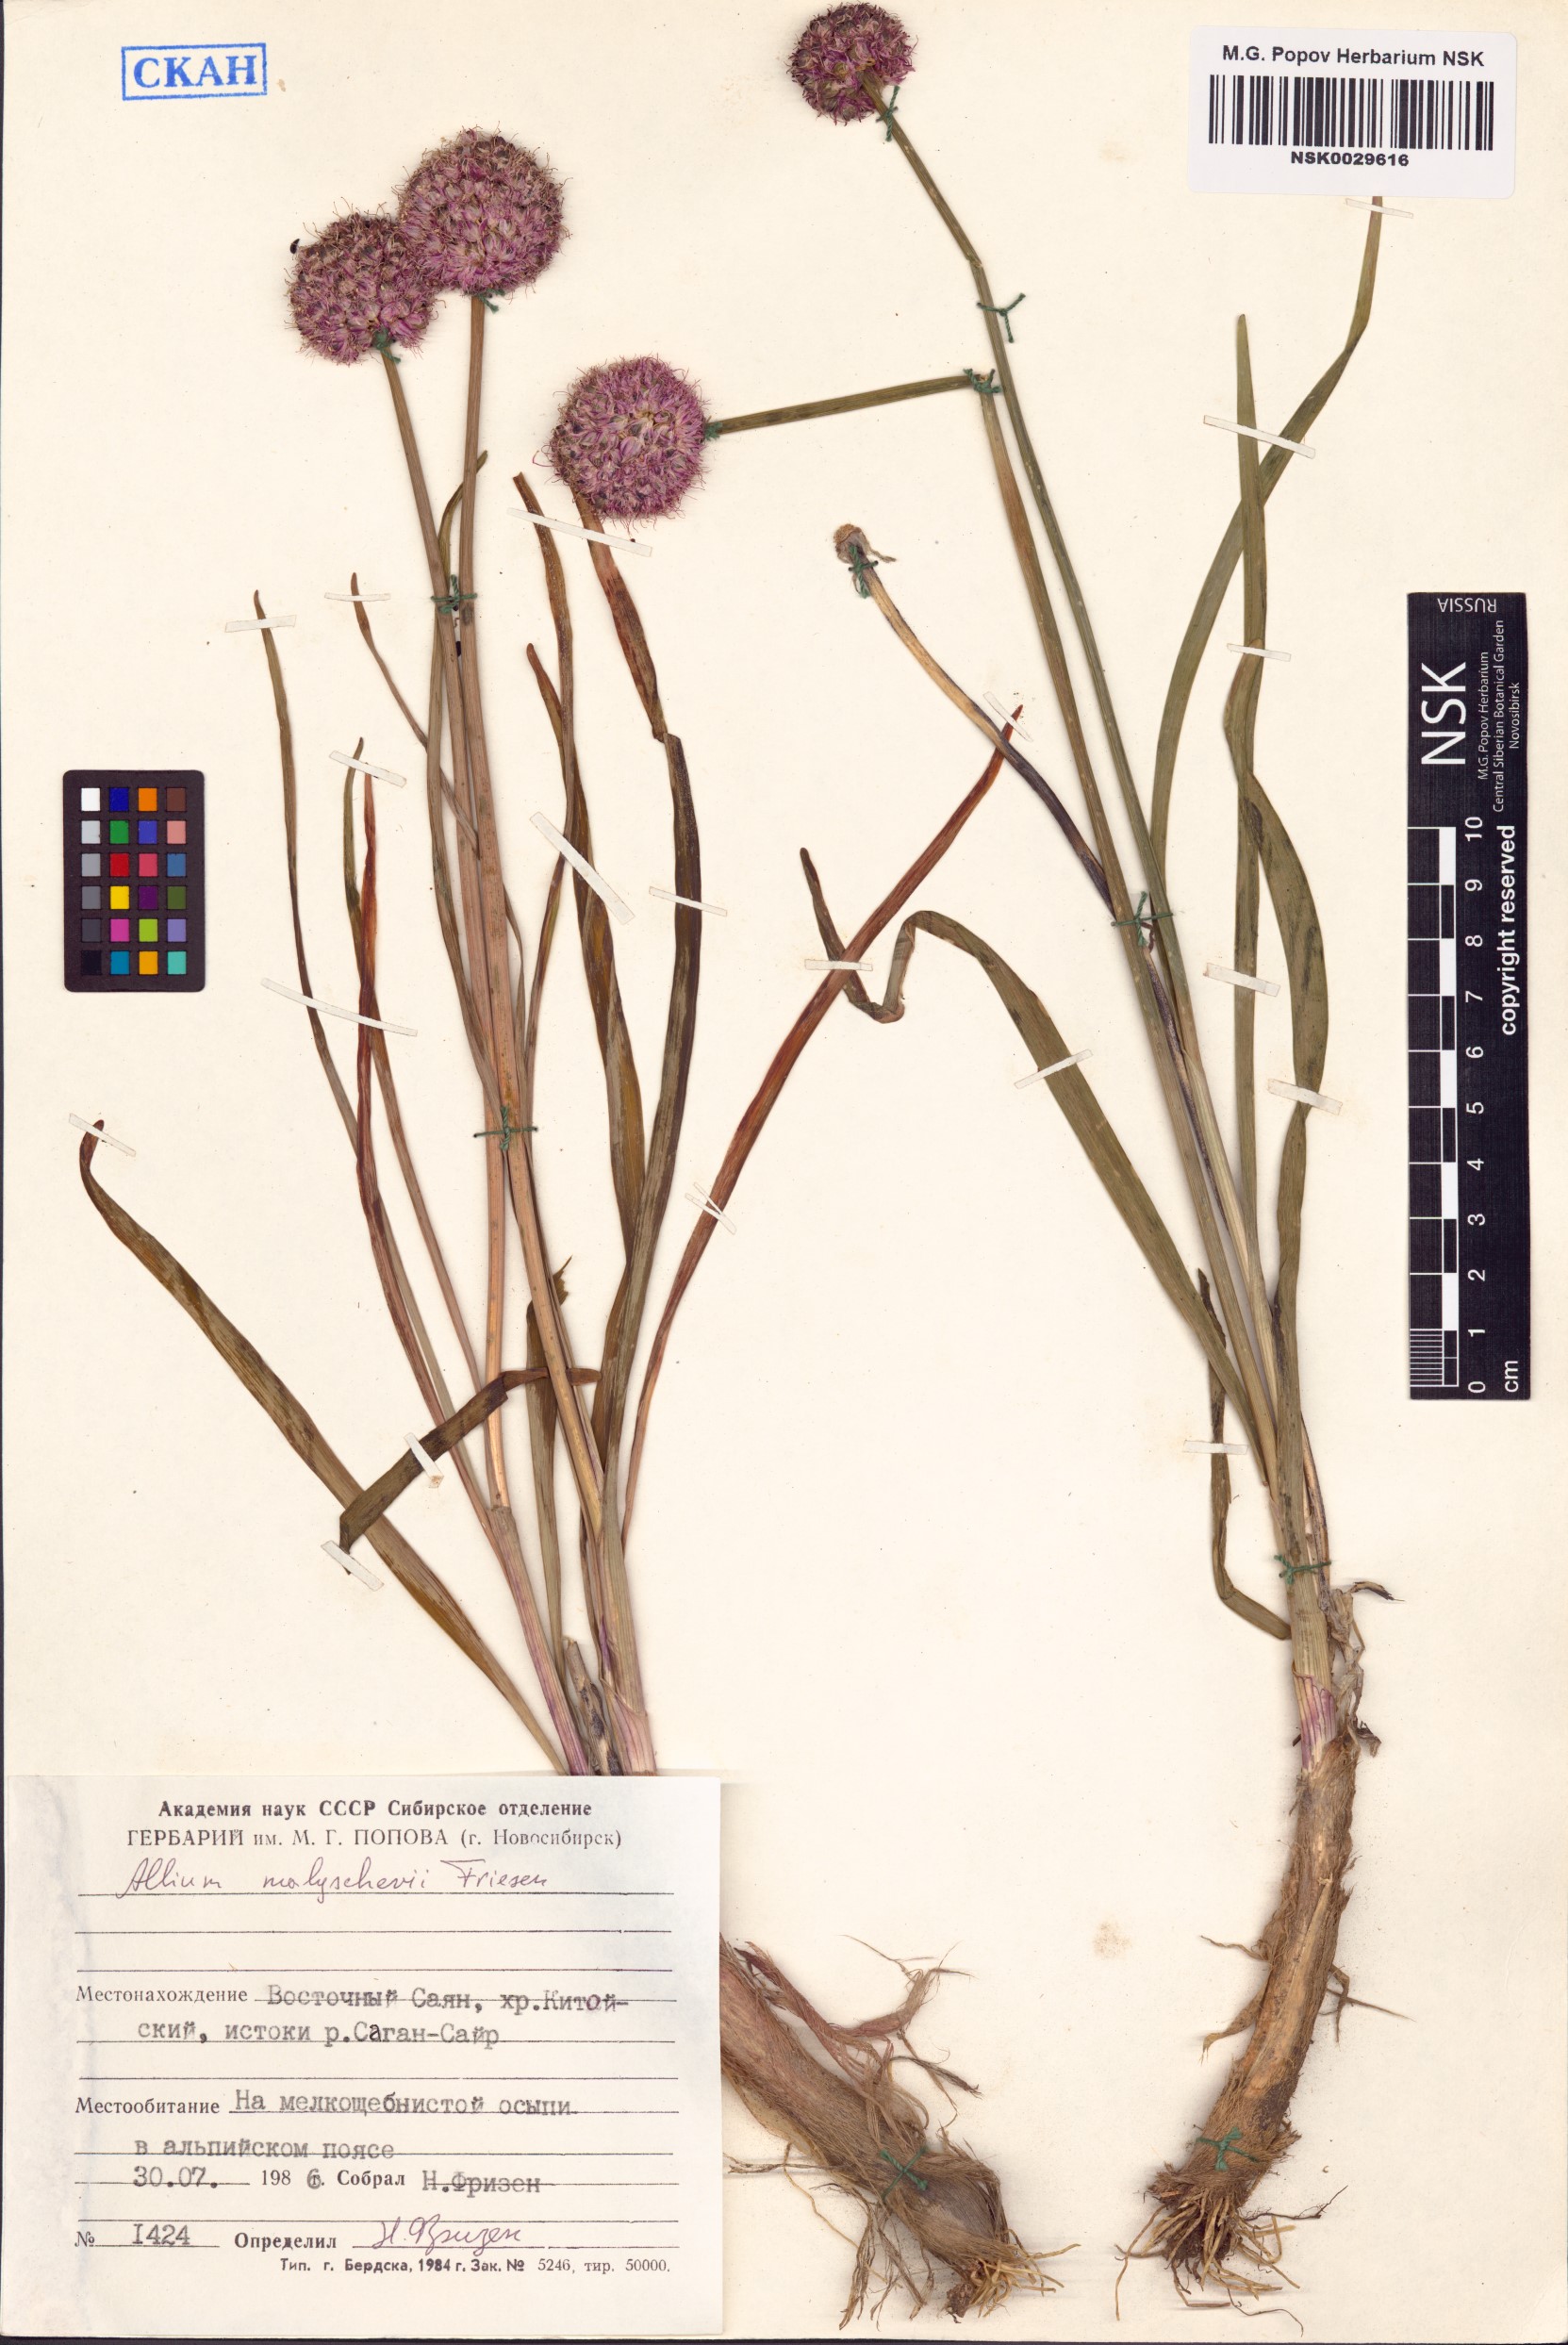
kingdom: Plantae
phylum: Tracheophyta
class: Liliopsida
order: Asparagales
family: Amaryllidaceae
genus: Allium
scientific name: Allium malyschevii
